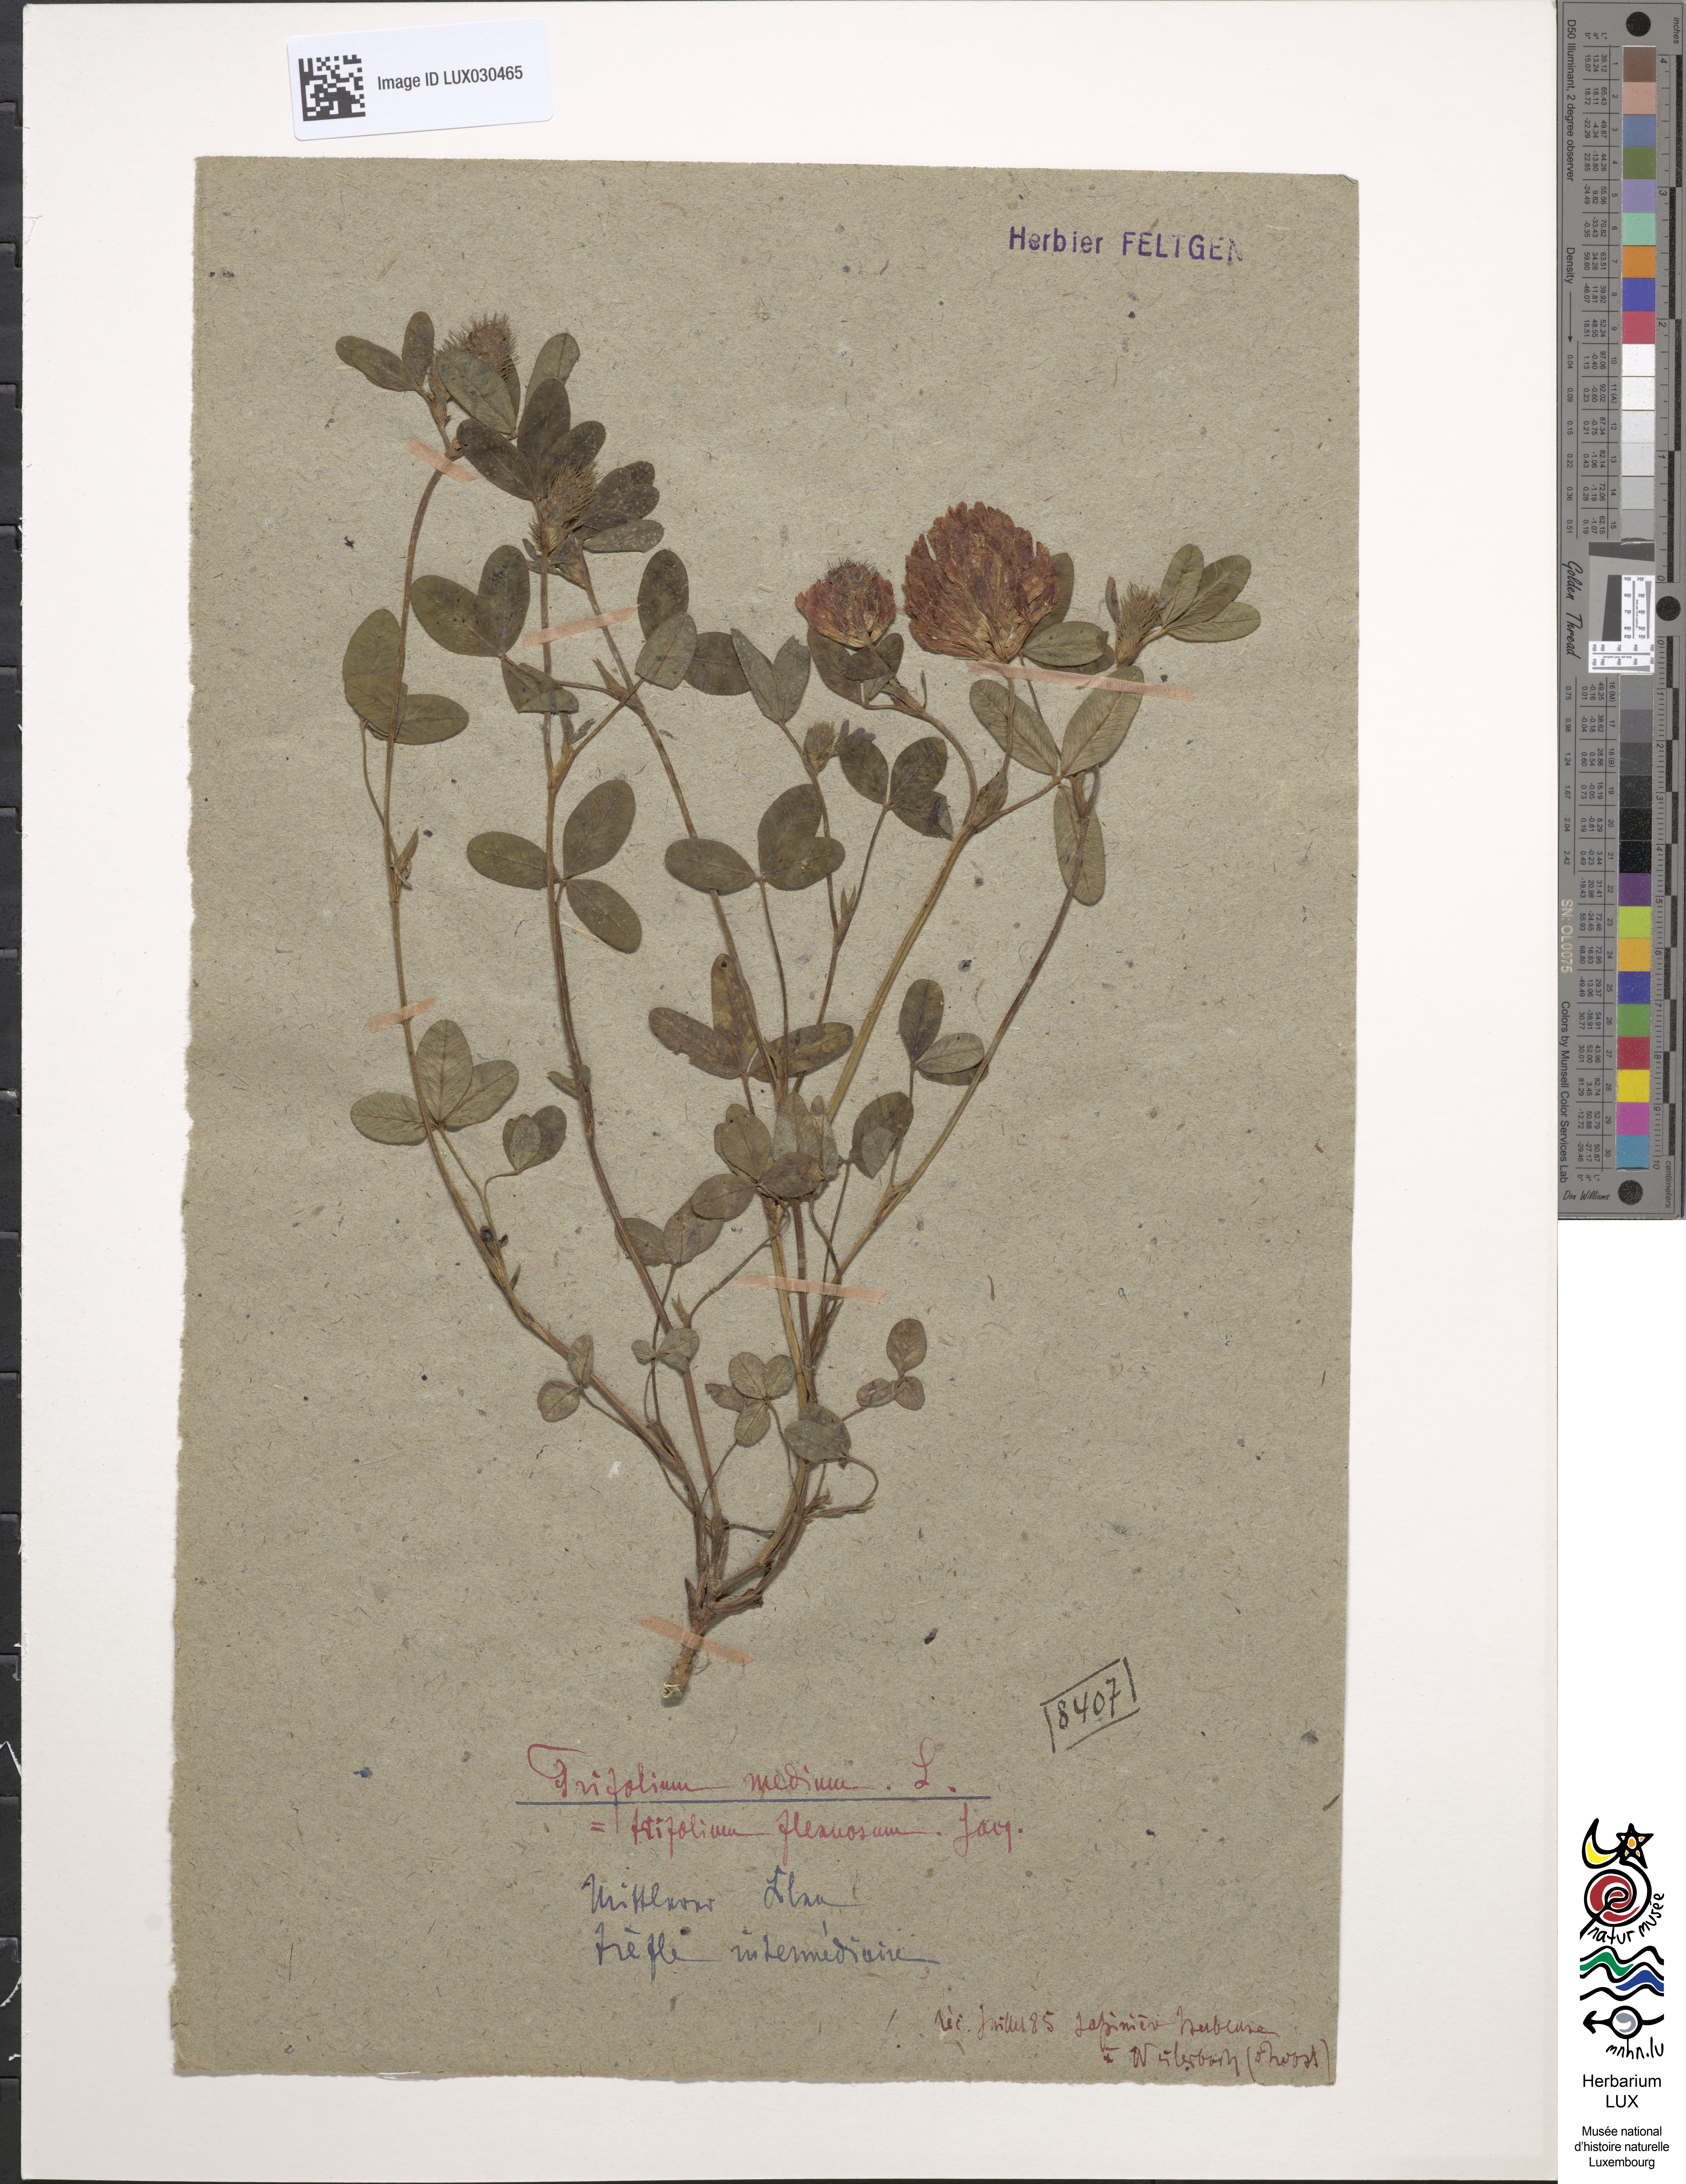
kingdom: Plantae
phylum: Tracheophyta
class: Magnoliopsida
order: Fabales
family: Fabaceae
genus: Trifolium
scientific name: Trifolium medium
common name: Zigzag clover
